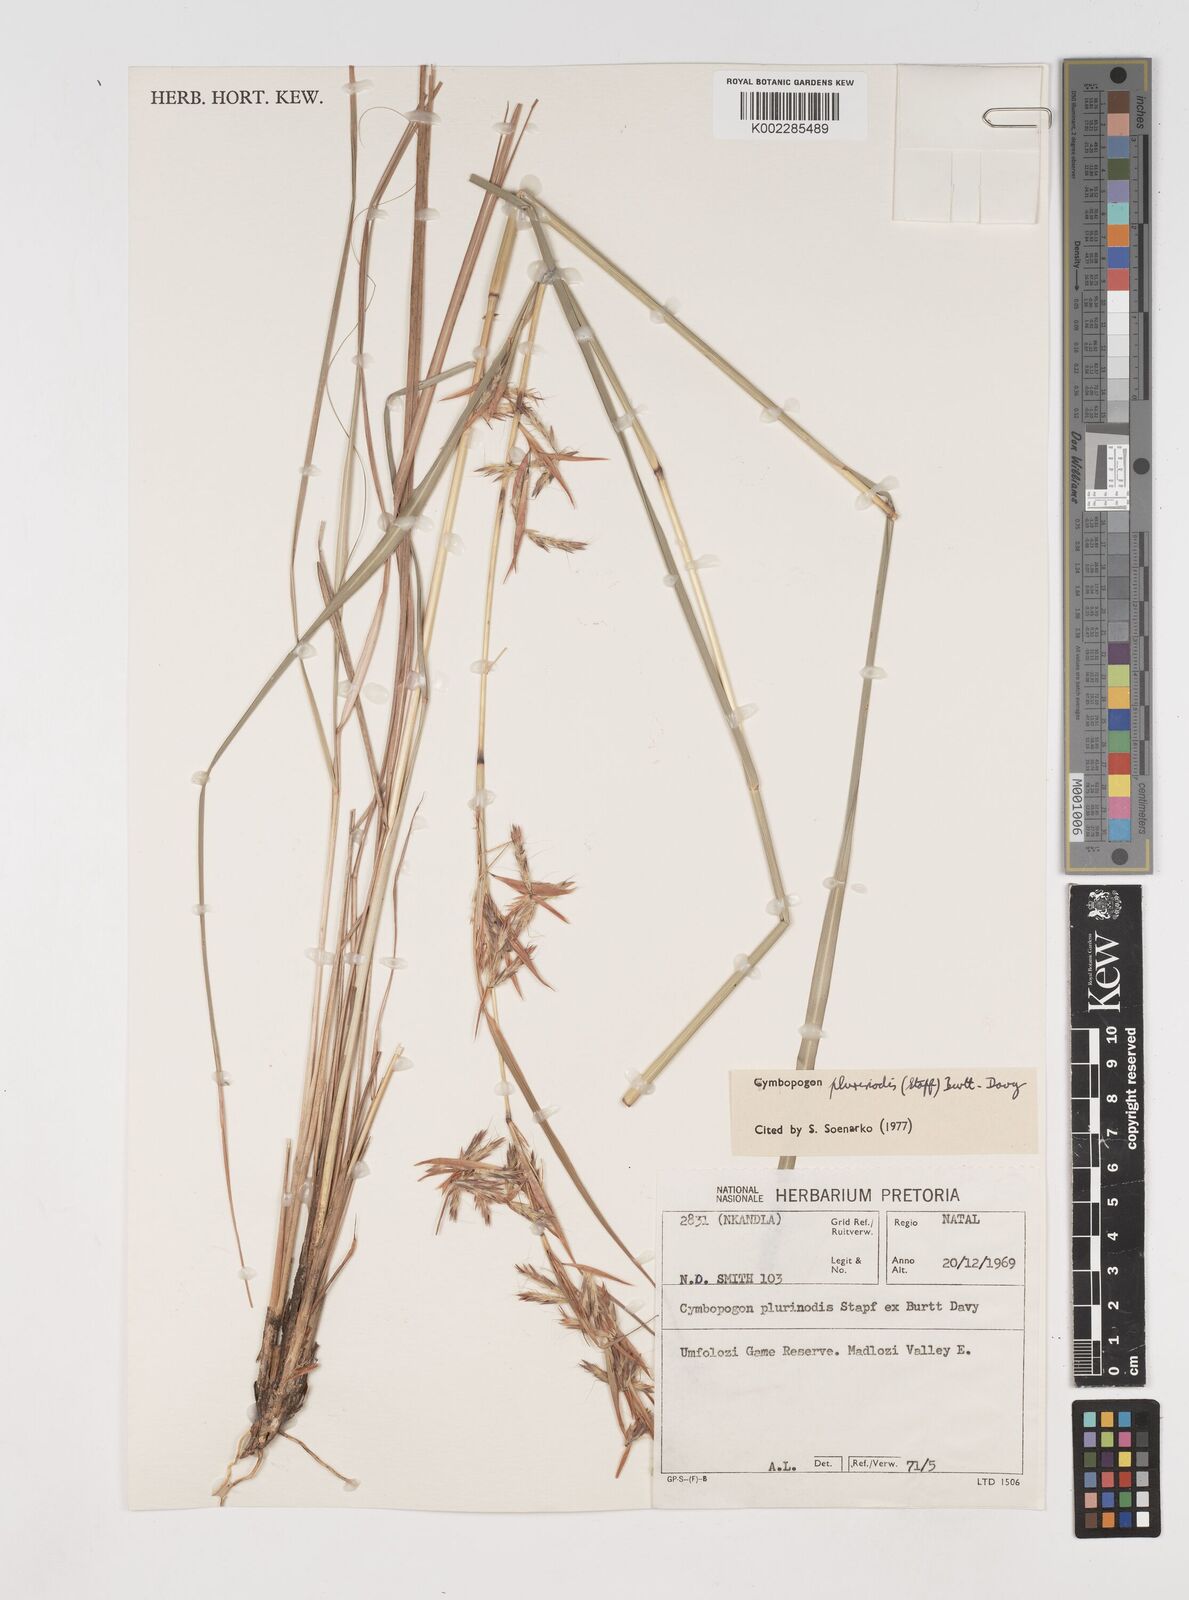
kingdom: Plantae
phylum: Tracheophyta
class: Liliopsida
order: Poales
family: Poaceae
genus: Cymbopogon
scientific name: Cymbopogon pospischilii
